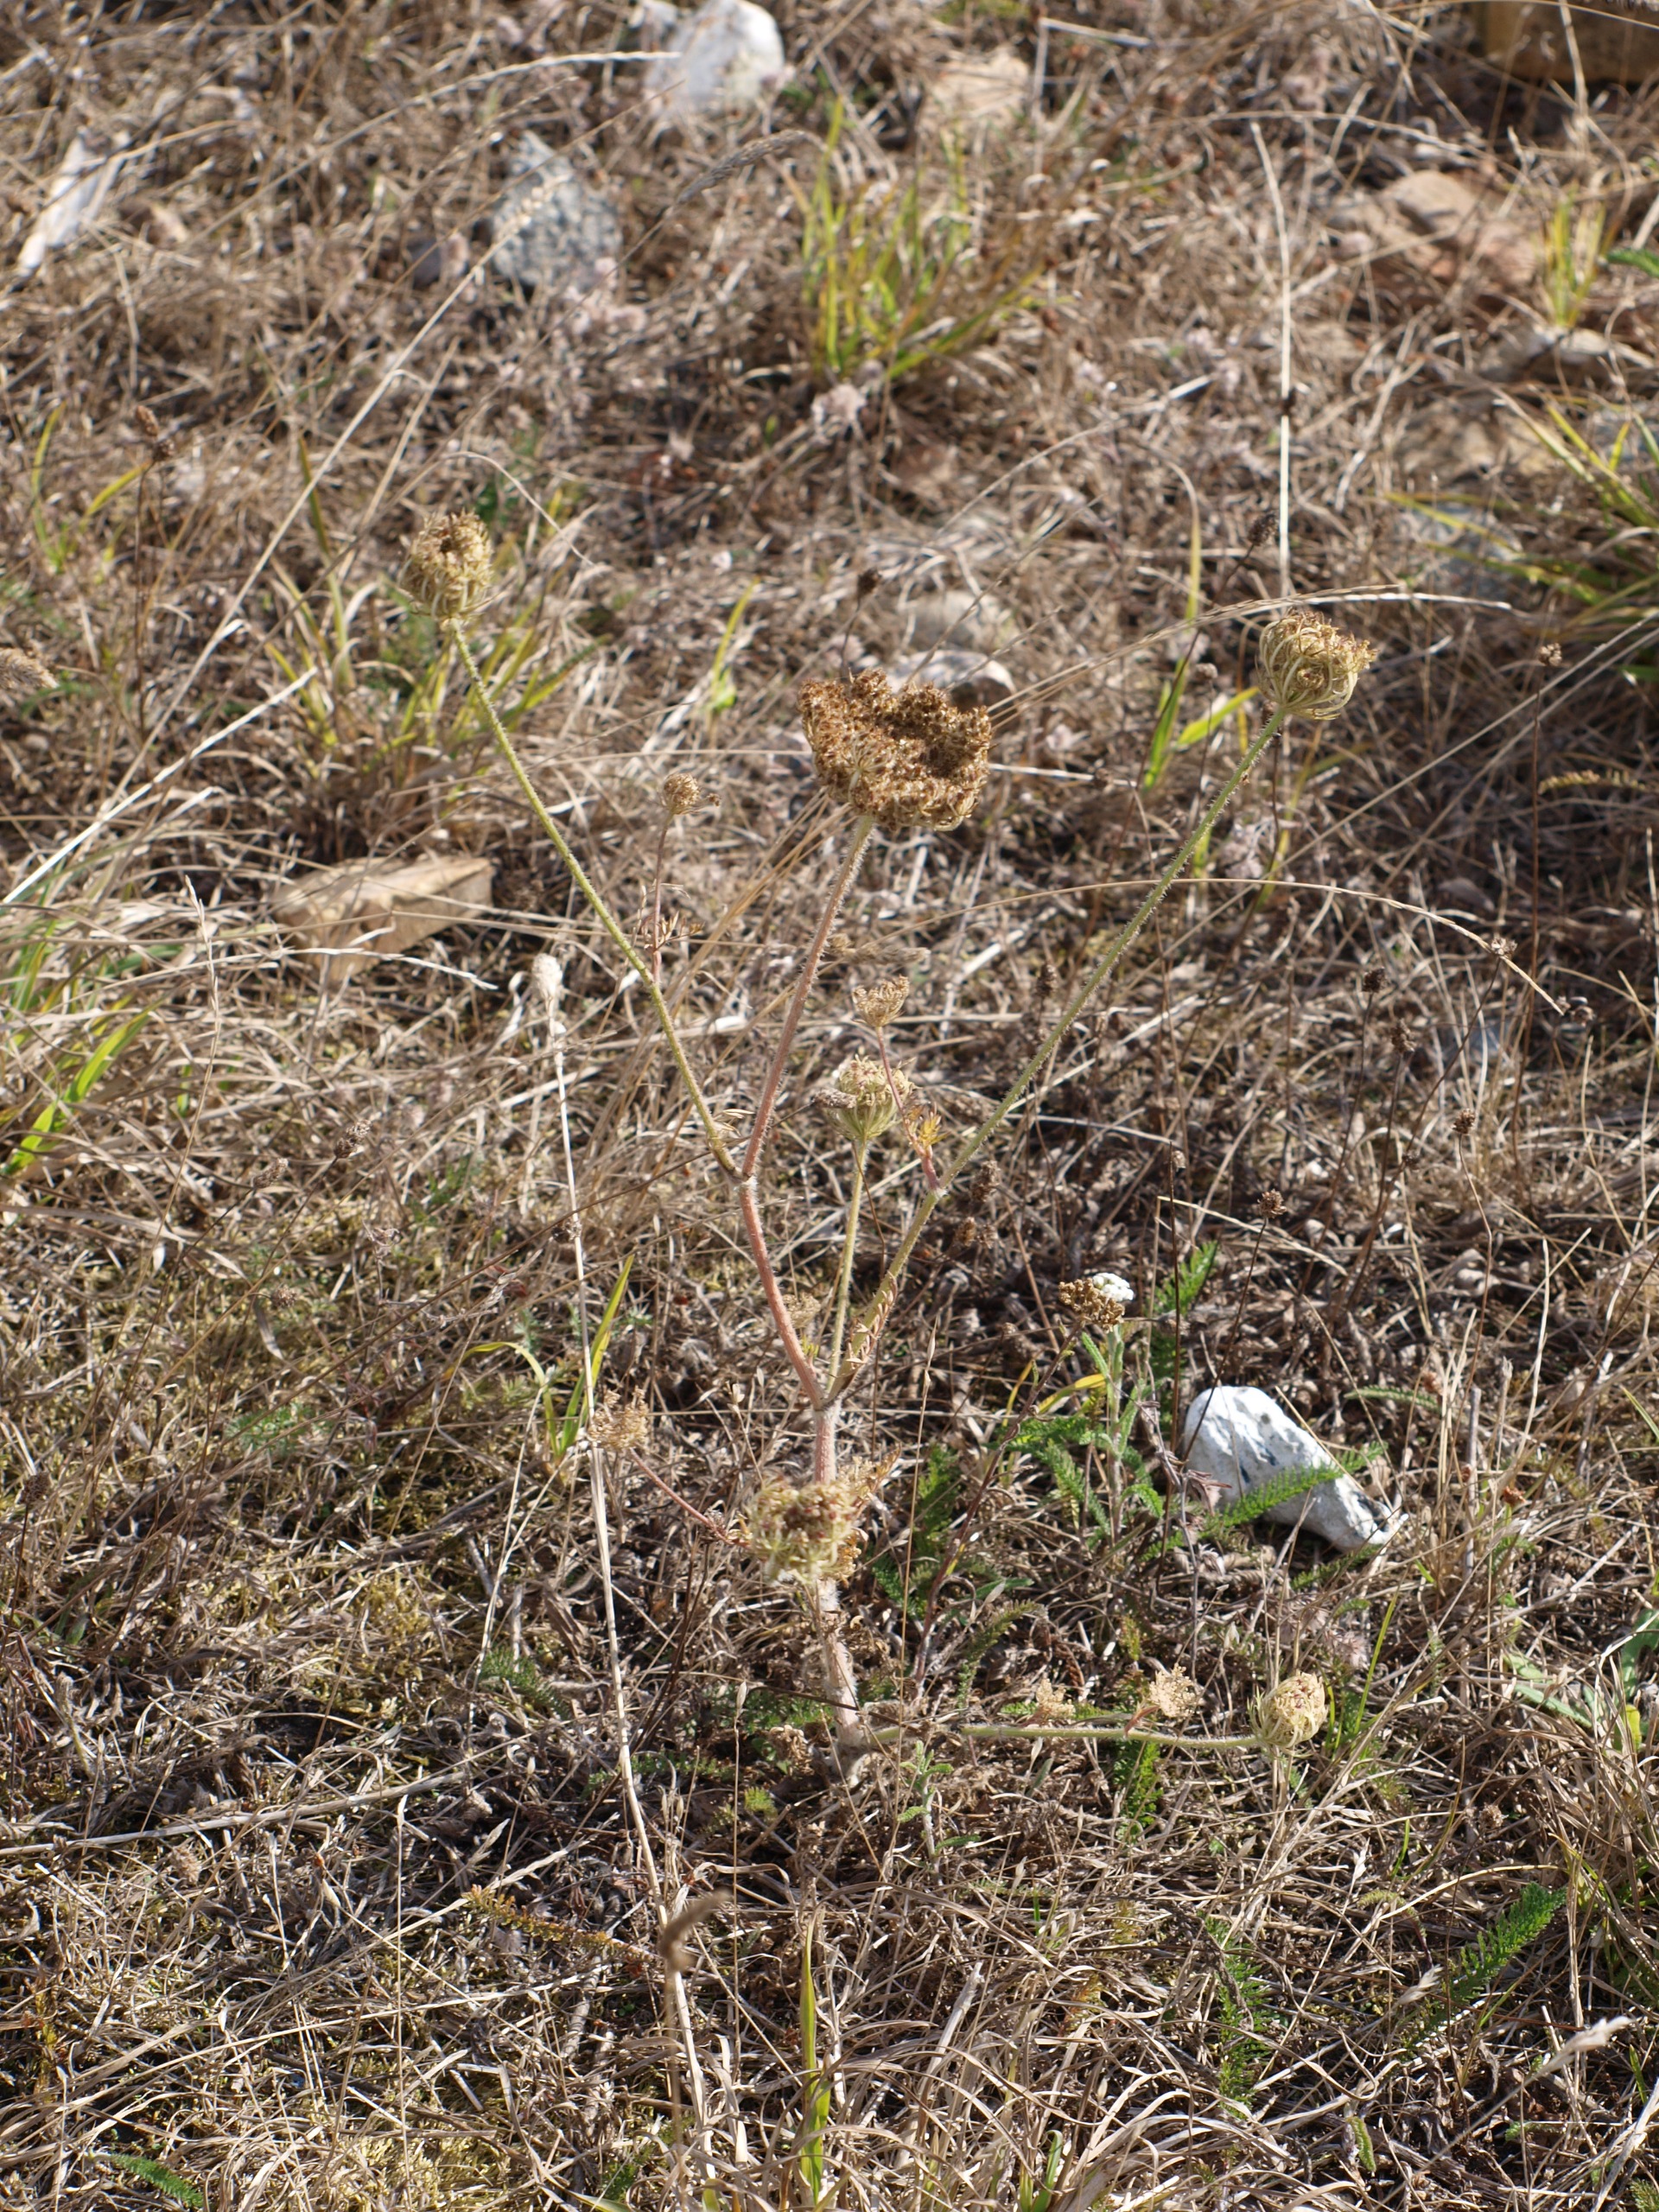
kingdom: Plantae
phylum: Tracheophyta
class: Magnoliopsida
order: Apiales
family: Apiaceae
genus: Daucus
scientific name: Daucus carota
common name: Vild gulerod
